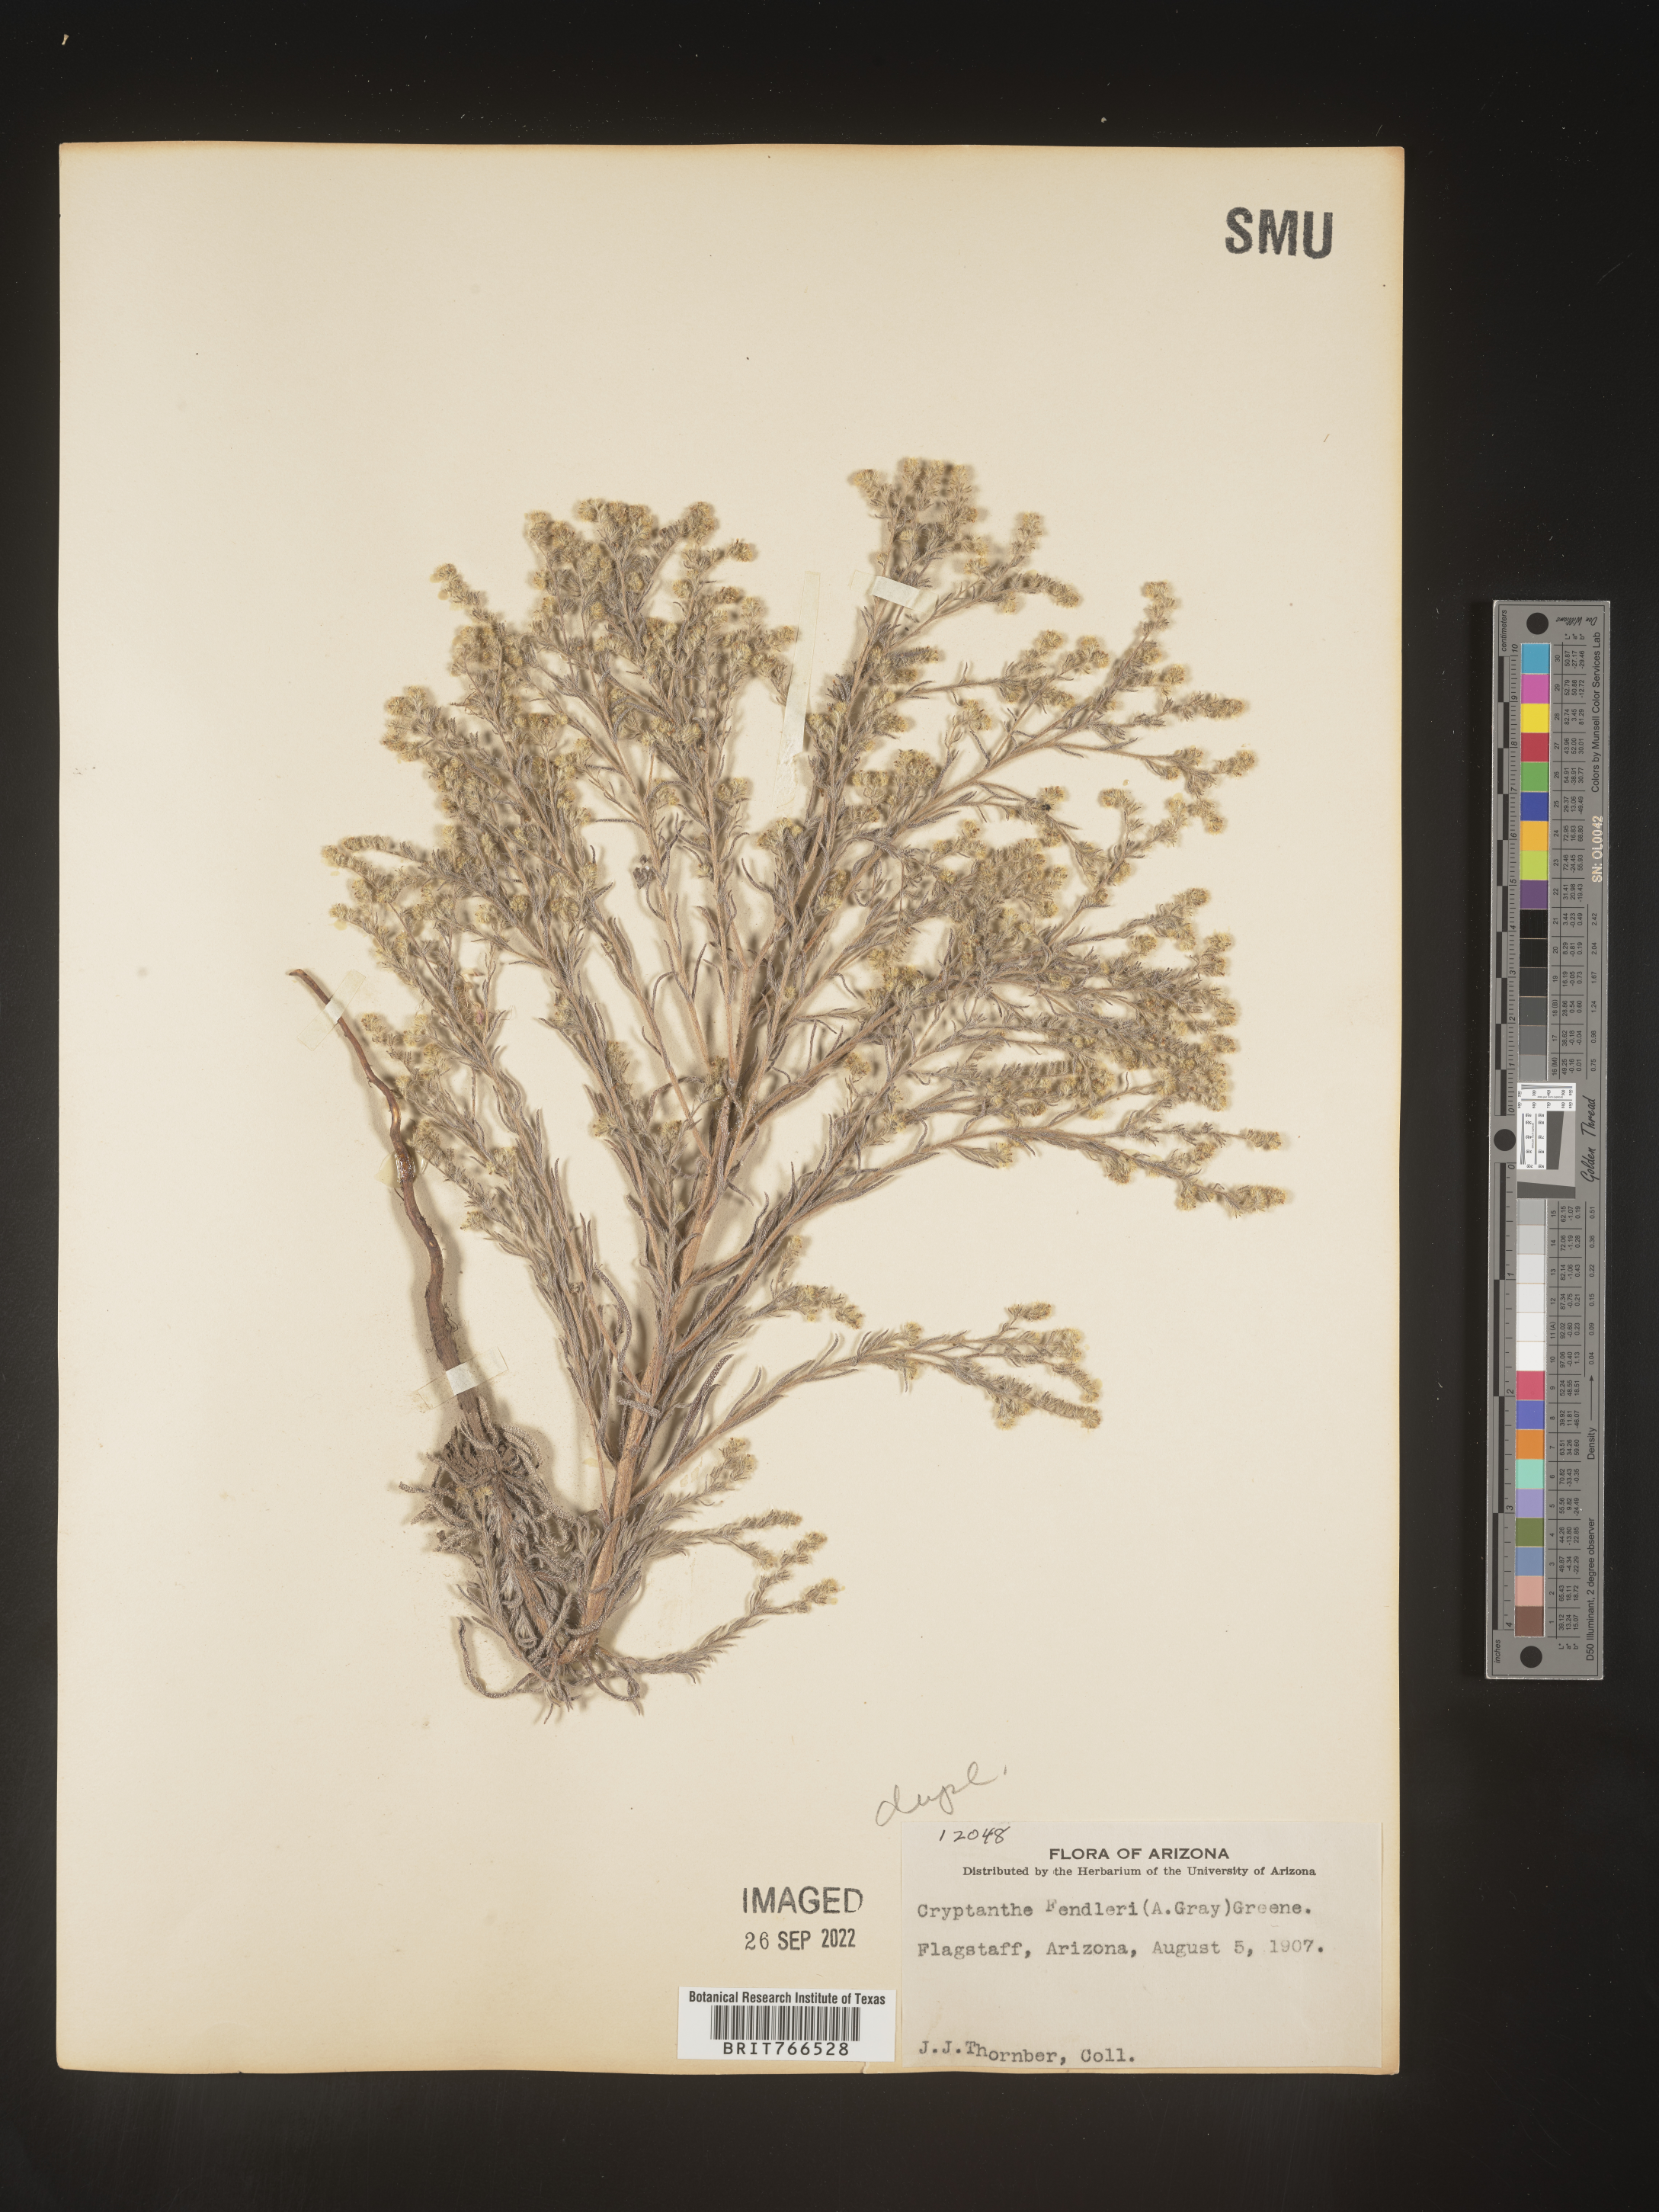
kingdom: Plantae
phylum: Tracheophyta
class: Magnoliopsida
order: Boraginales
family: Boraginaceae
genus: Cryptantha
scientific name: Cryptantha fendleri
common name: Sand-dune cryptantha
